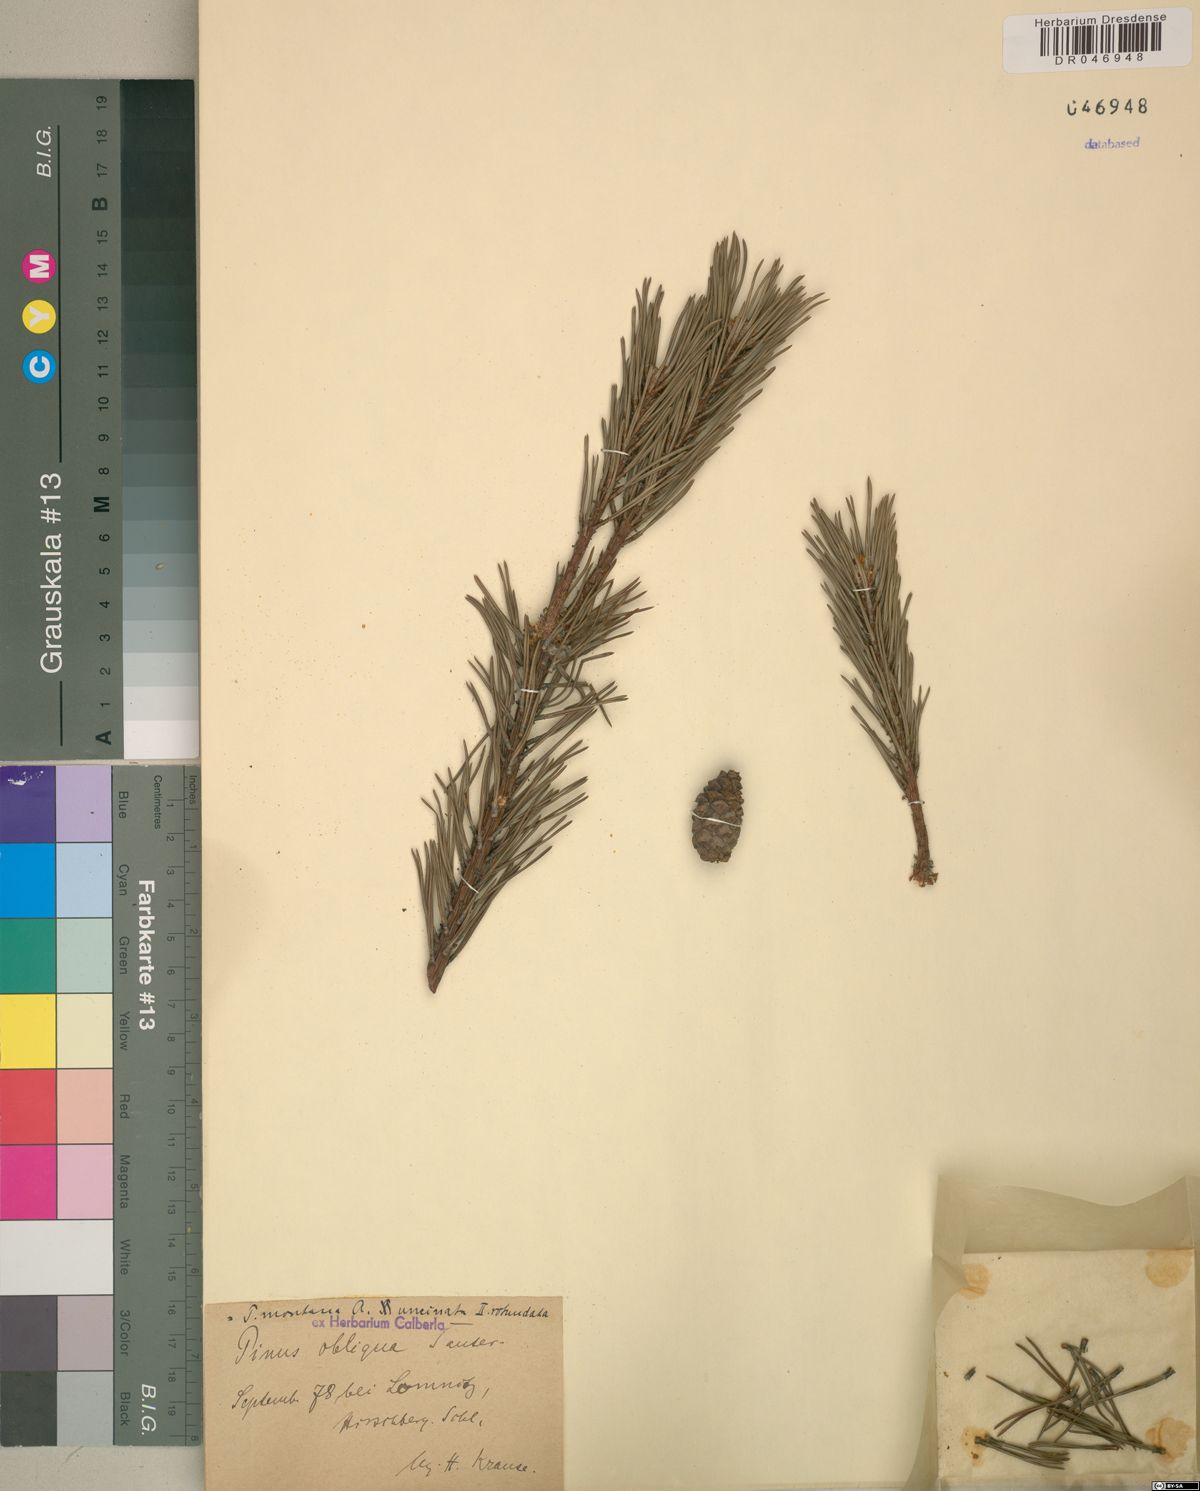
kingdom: Plantae
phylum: Tracheophyta
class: Pinopsida
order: Pinales
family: Pinaceae
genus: Pinus
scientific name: Pinus mugo
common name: Mugo pine
